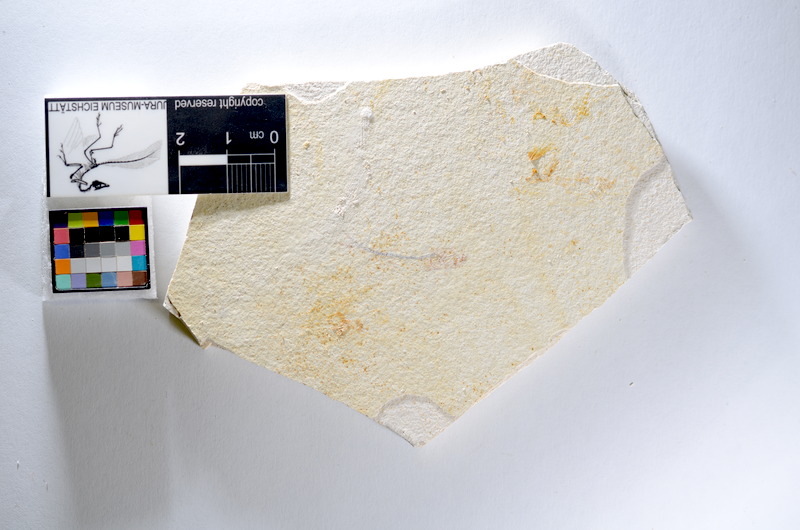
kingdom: Animalia
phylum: Chordata
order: Salmoniformes
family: Orthogonikleithridae
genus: Orthogonikleithrus
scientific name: Orthogonikleithrus hoelli
